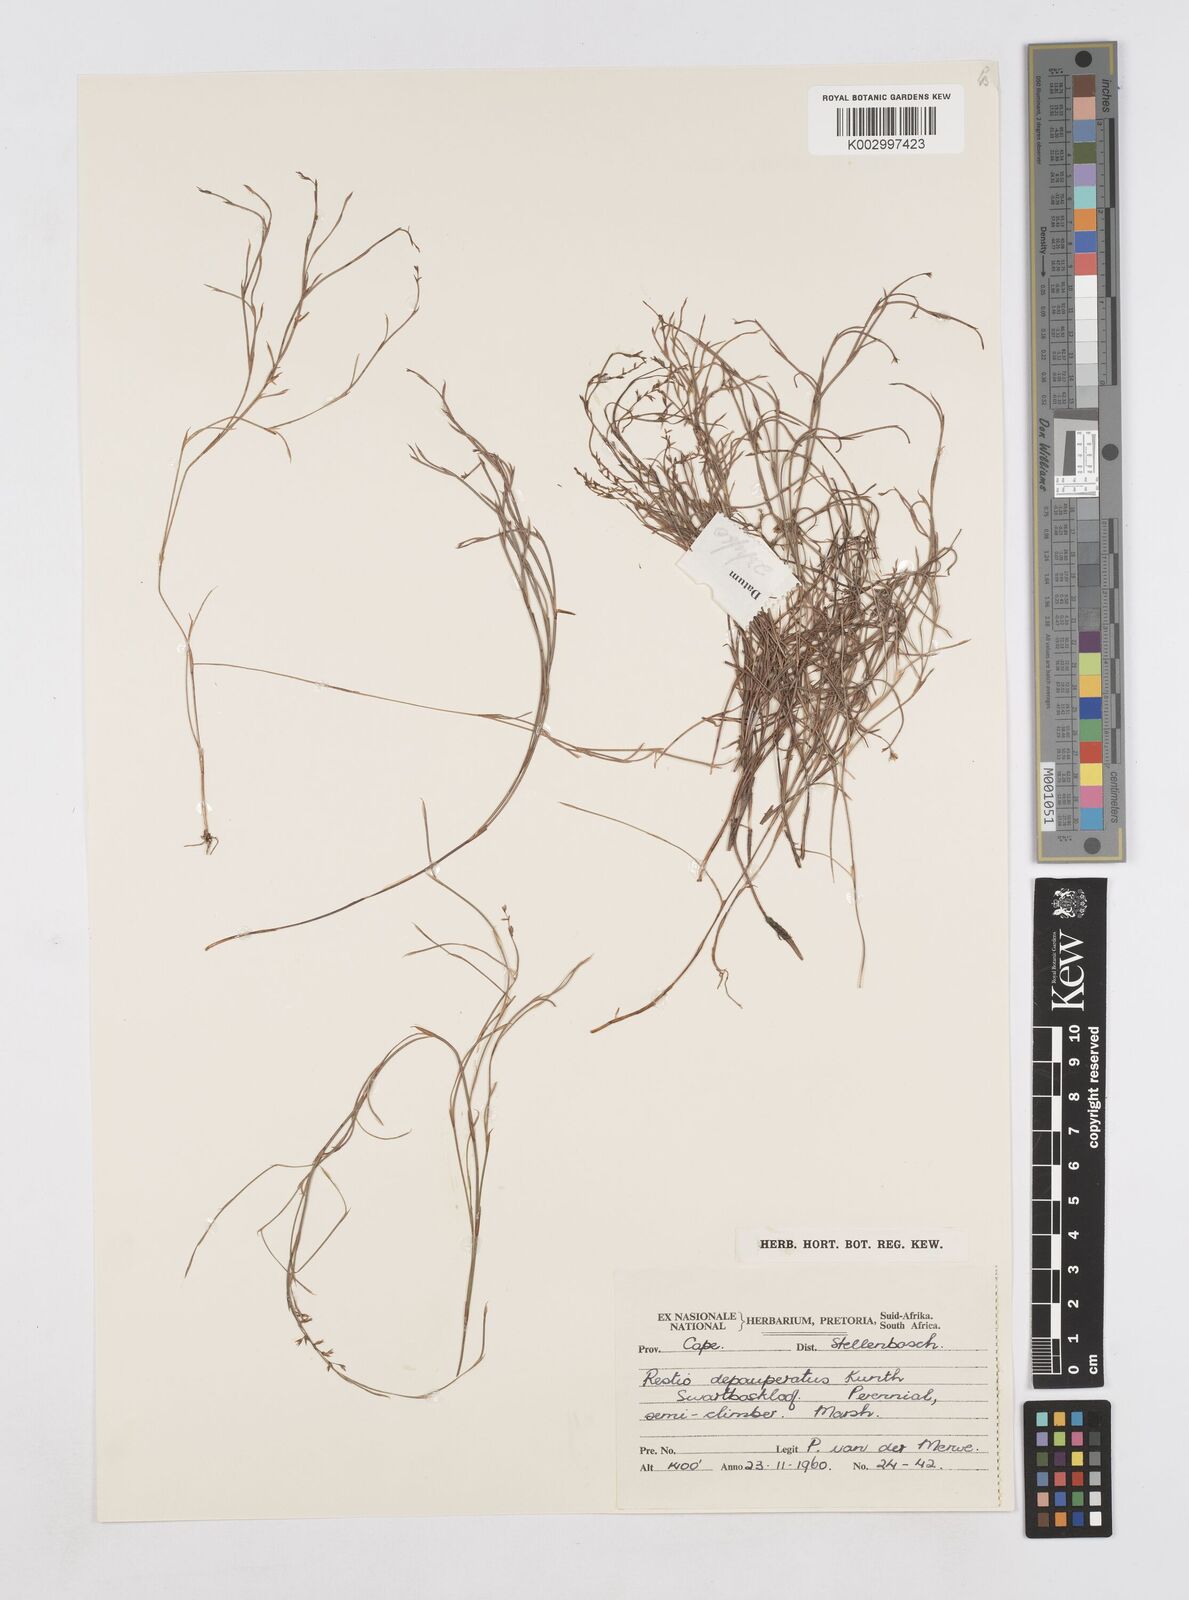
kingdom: Plantae
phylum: Tracheophyta
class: Liliopsida
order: Poales
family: Restionaceae
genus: Platycaulos
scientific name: Platycaulos depauperatus
